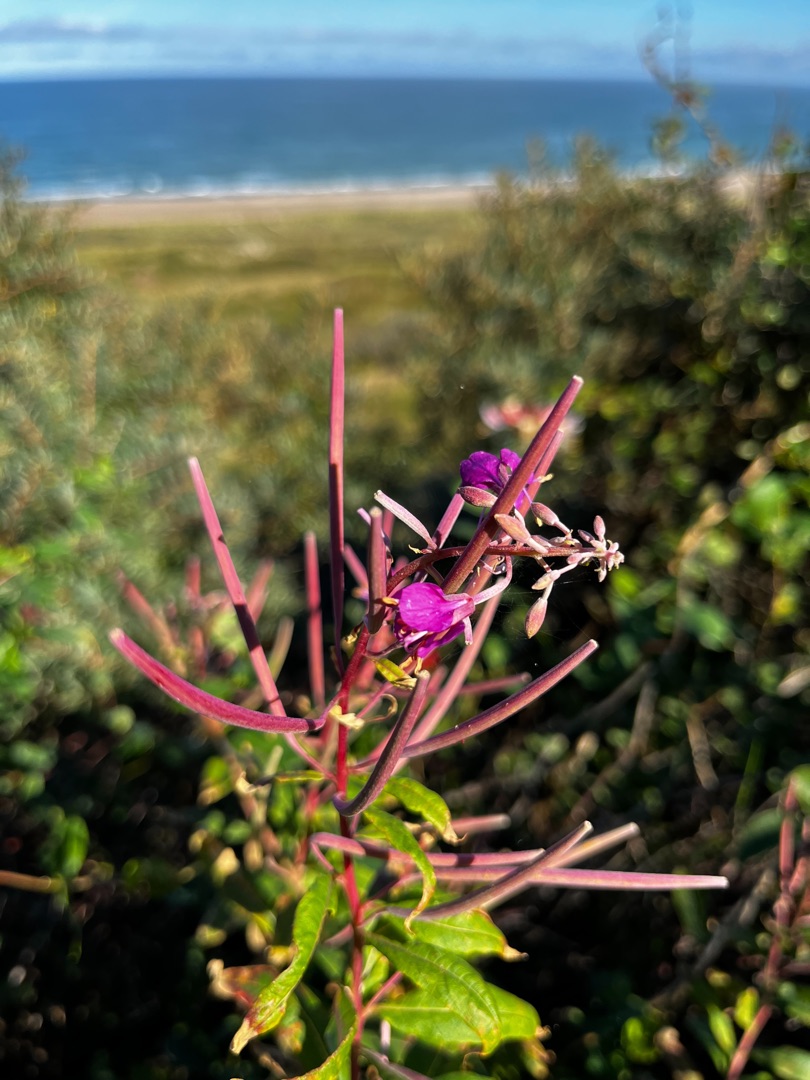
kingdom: Plantae
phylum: Tracheophyta
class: Magnoliopsida
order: Myrtales
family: Onagraceae
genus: Chamaenerion
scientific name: Chamaenerion angustifolium
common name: Gederams
